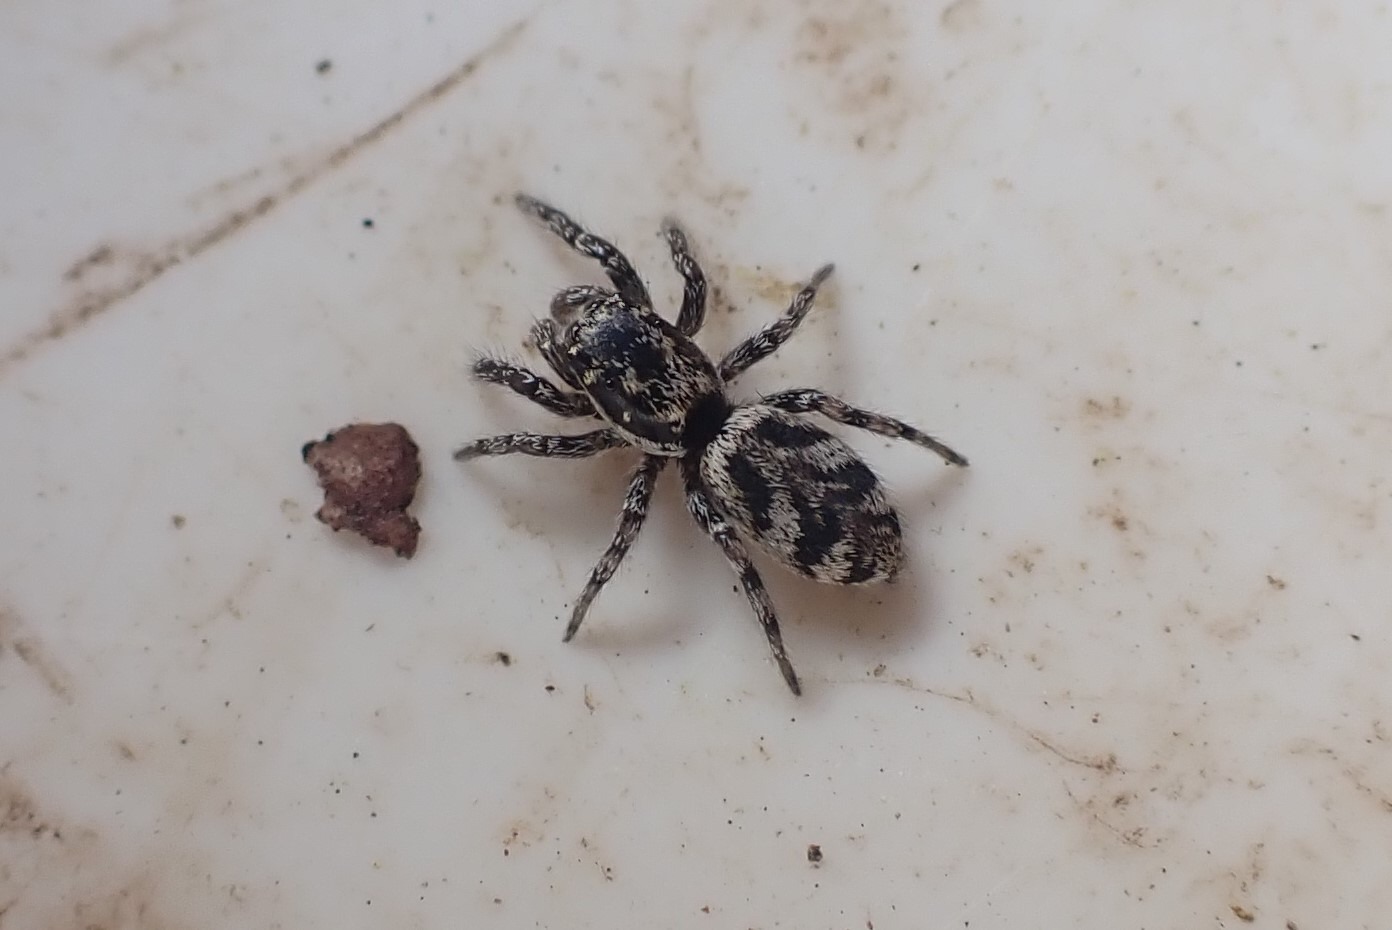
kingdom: Animalia
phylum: Arthropoda
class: Arachnida
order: Araneae
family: Salticidae
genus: Salticus
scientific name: Salticus
